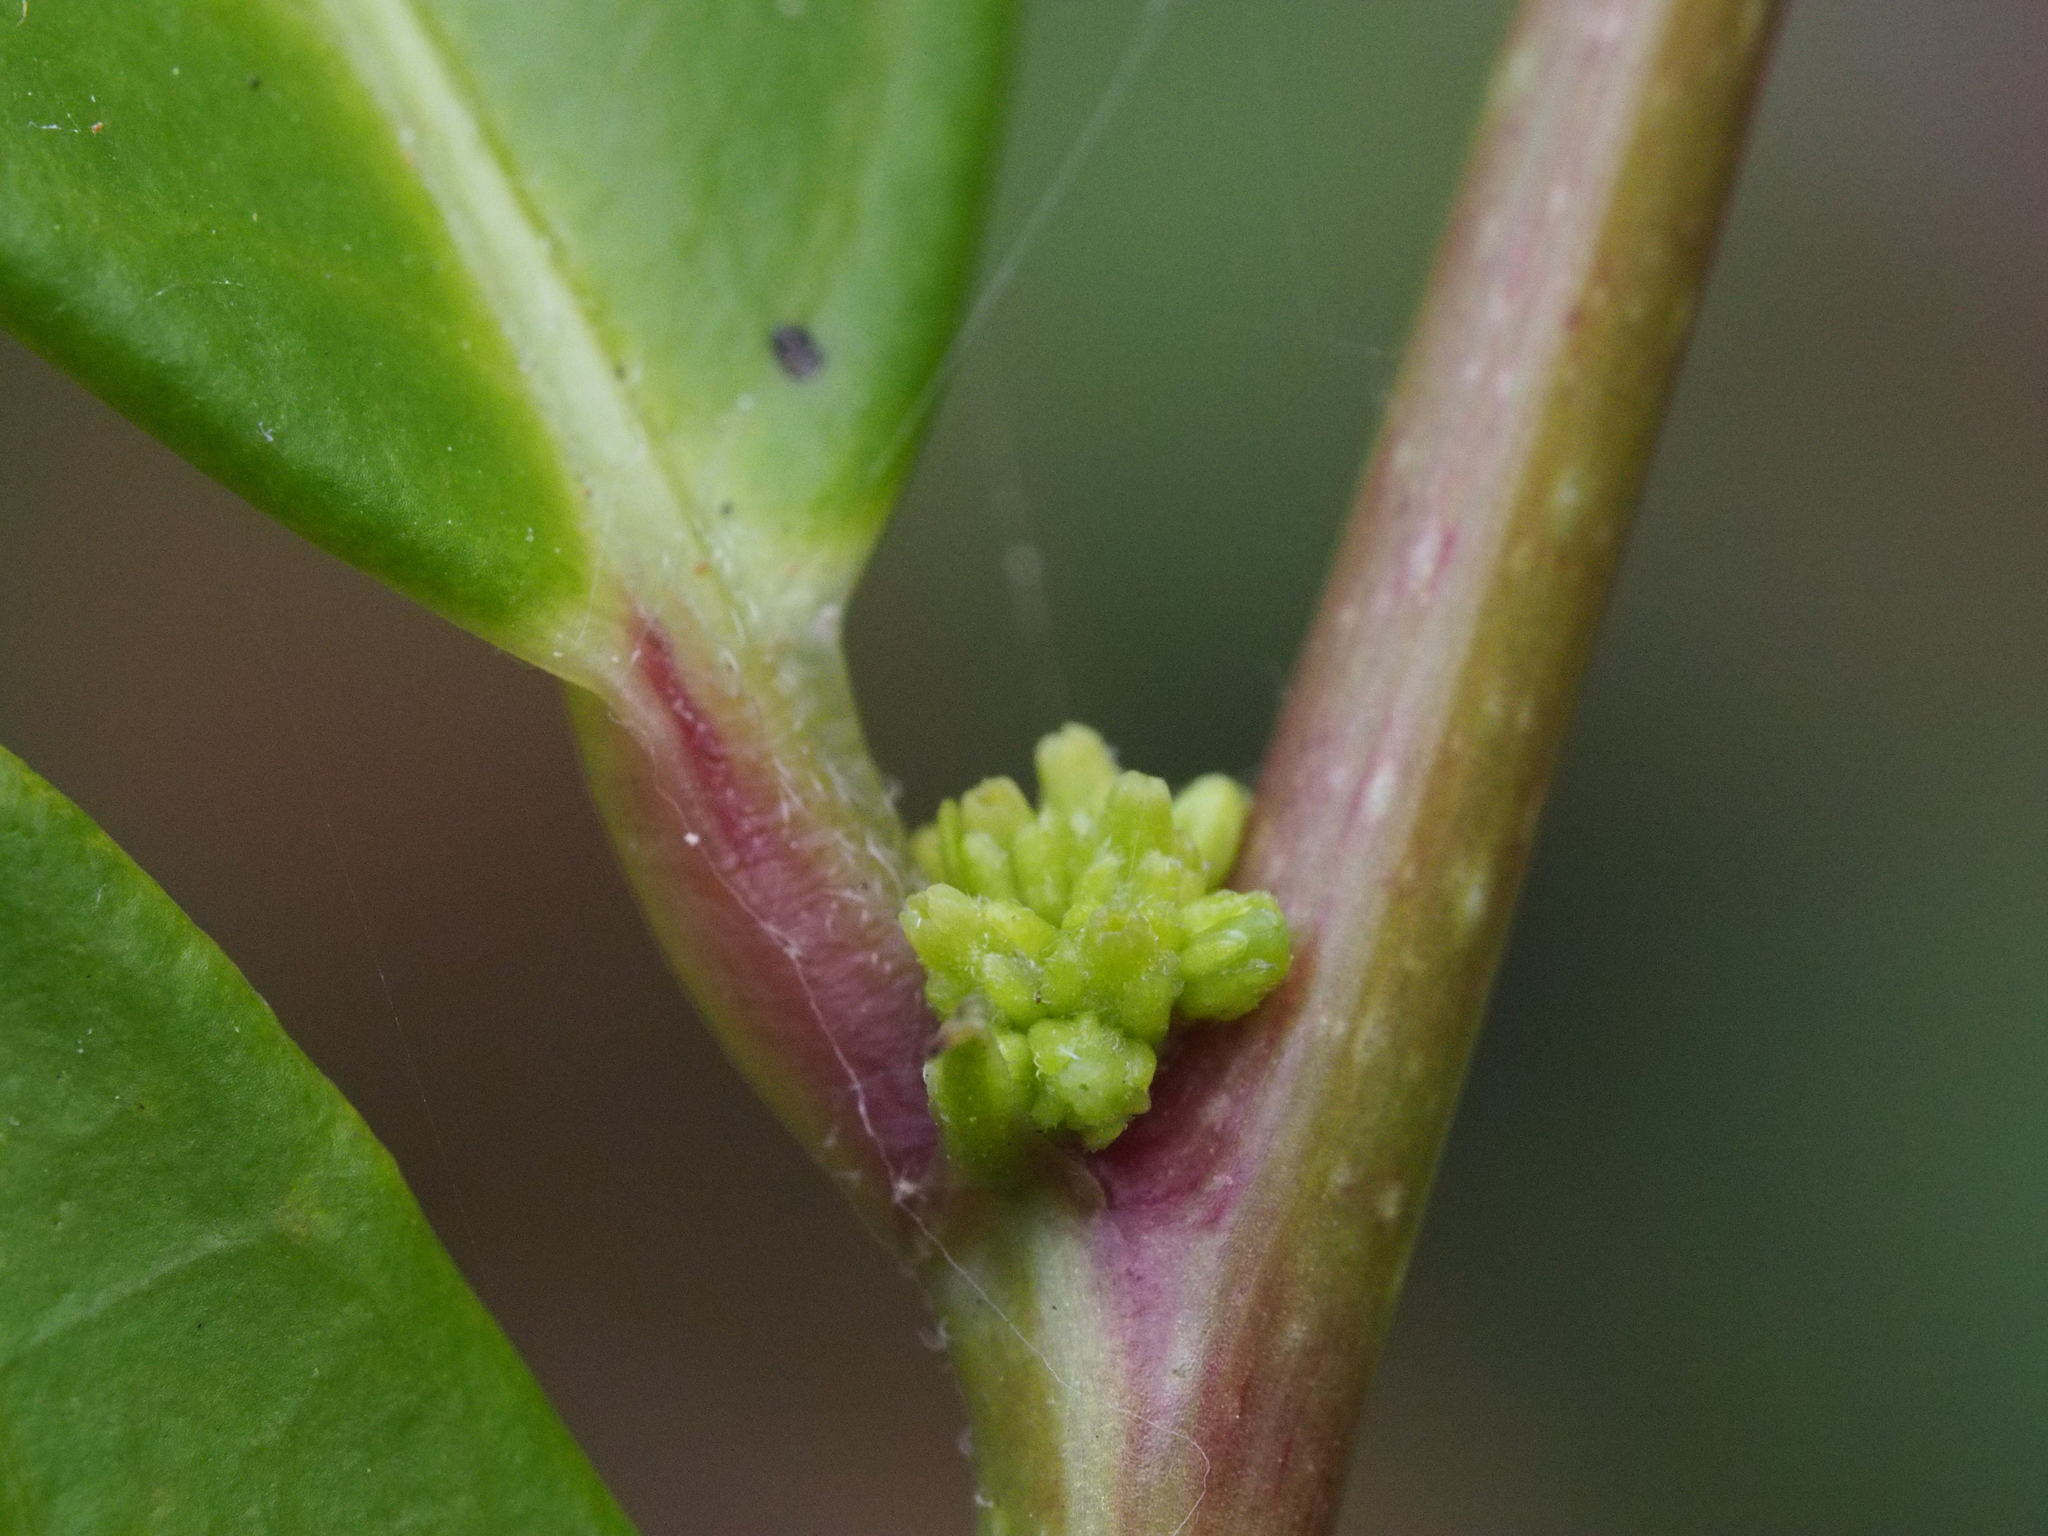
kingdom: Plantae
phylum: Tracheophyta
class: Magnoliopsida
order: Malpighiales
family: Phyllanthaceae
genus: Glochidion
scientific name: Glochidion kusukusense
